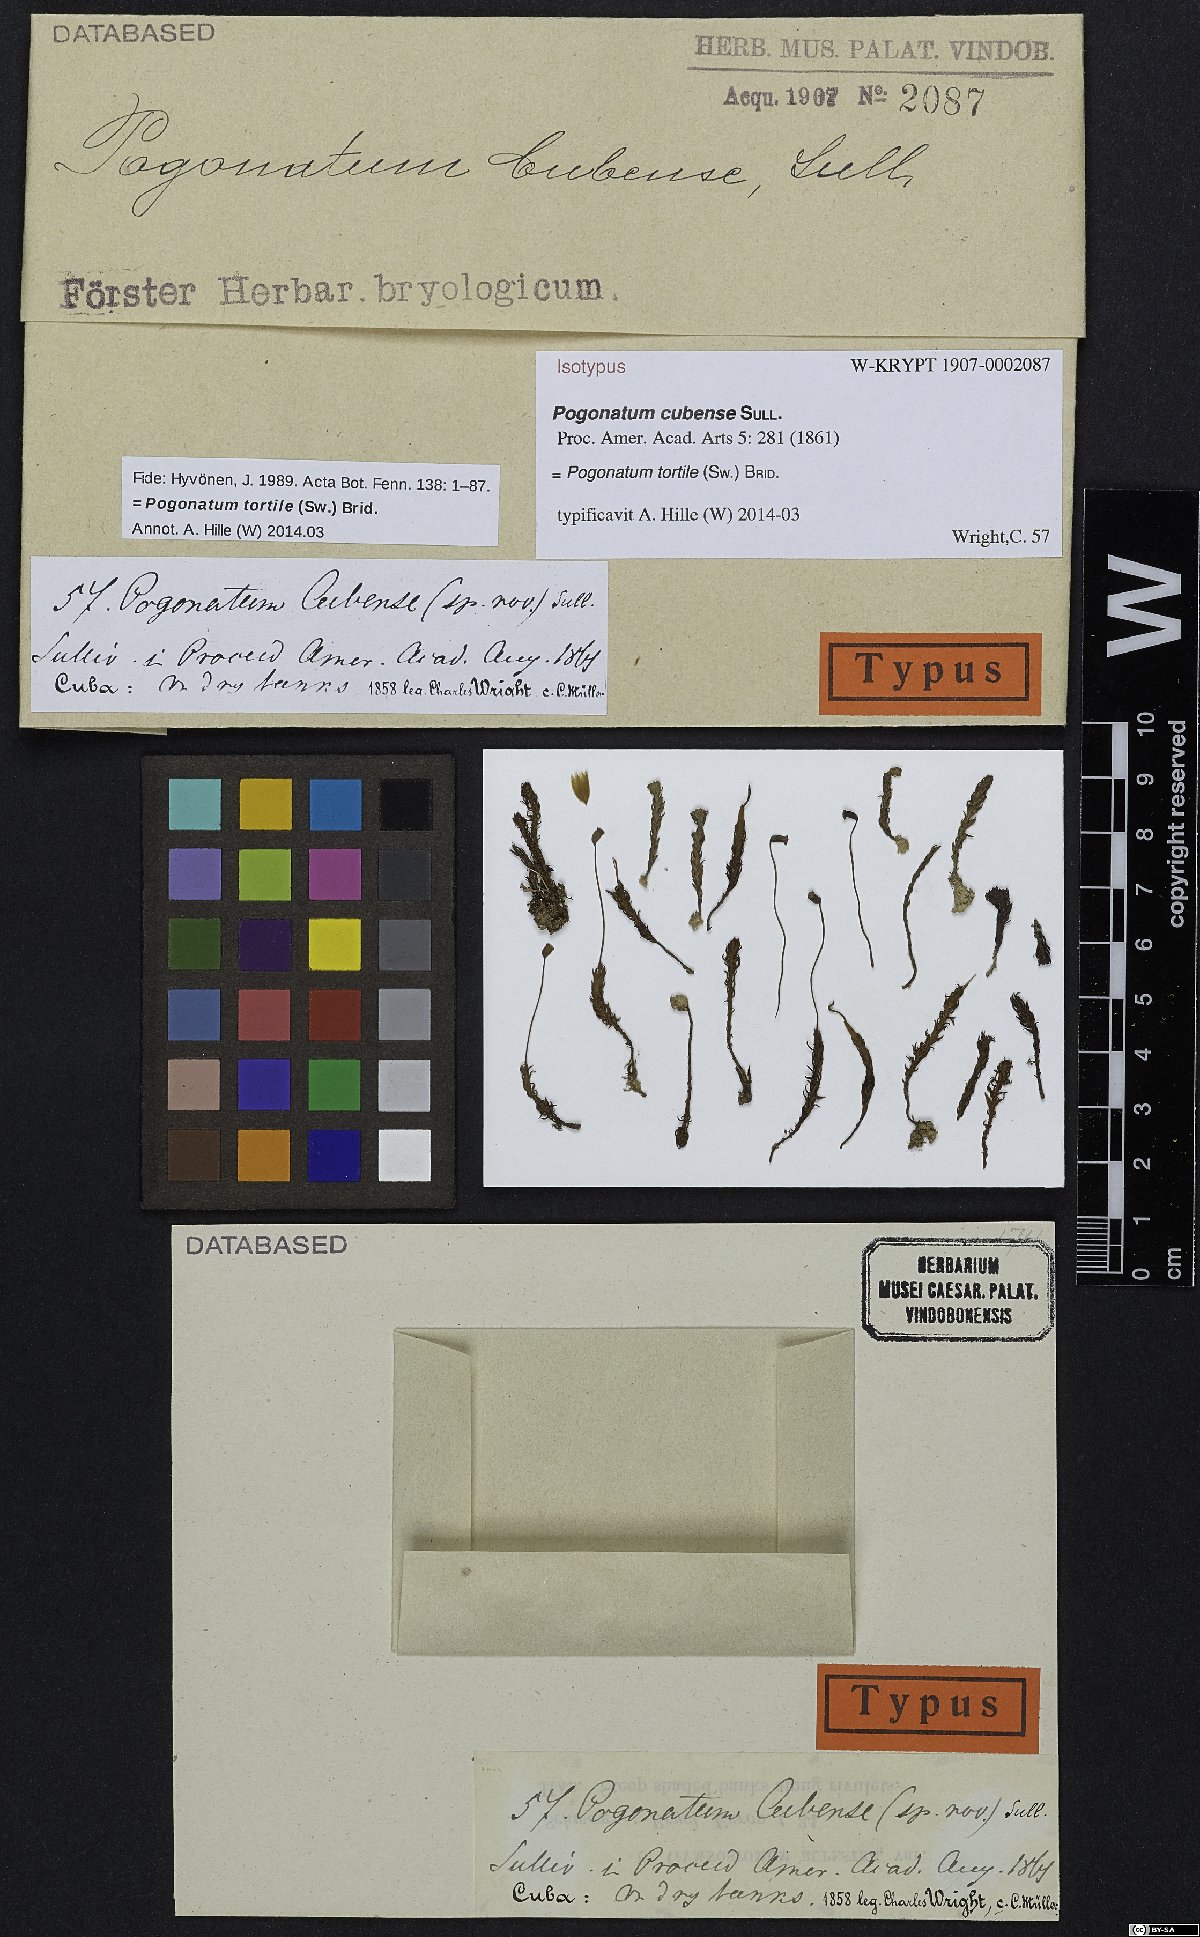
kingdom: Plantae
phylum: Bryophyta
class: Polytrichopsida
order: Polytrichales
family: Polytrichaceae
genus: Pogonatum
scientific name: Pogonatum tortile
